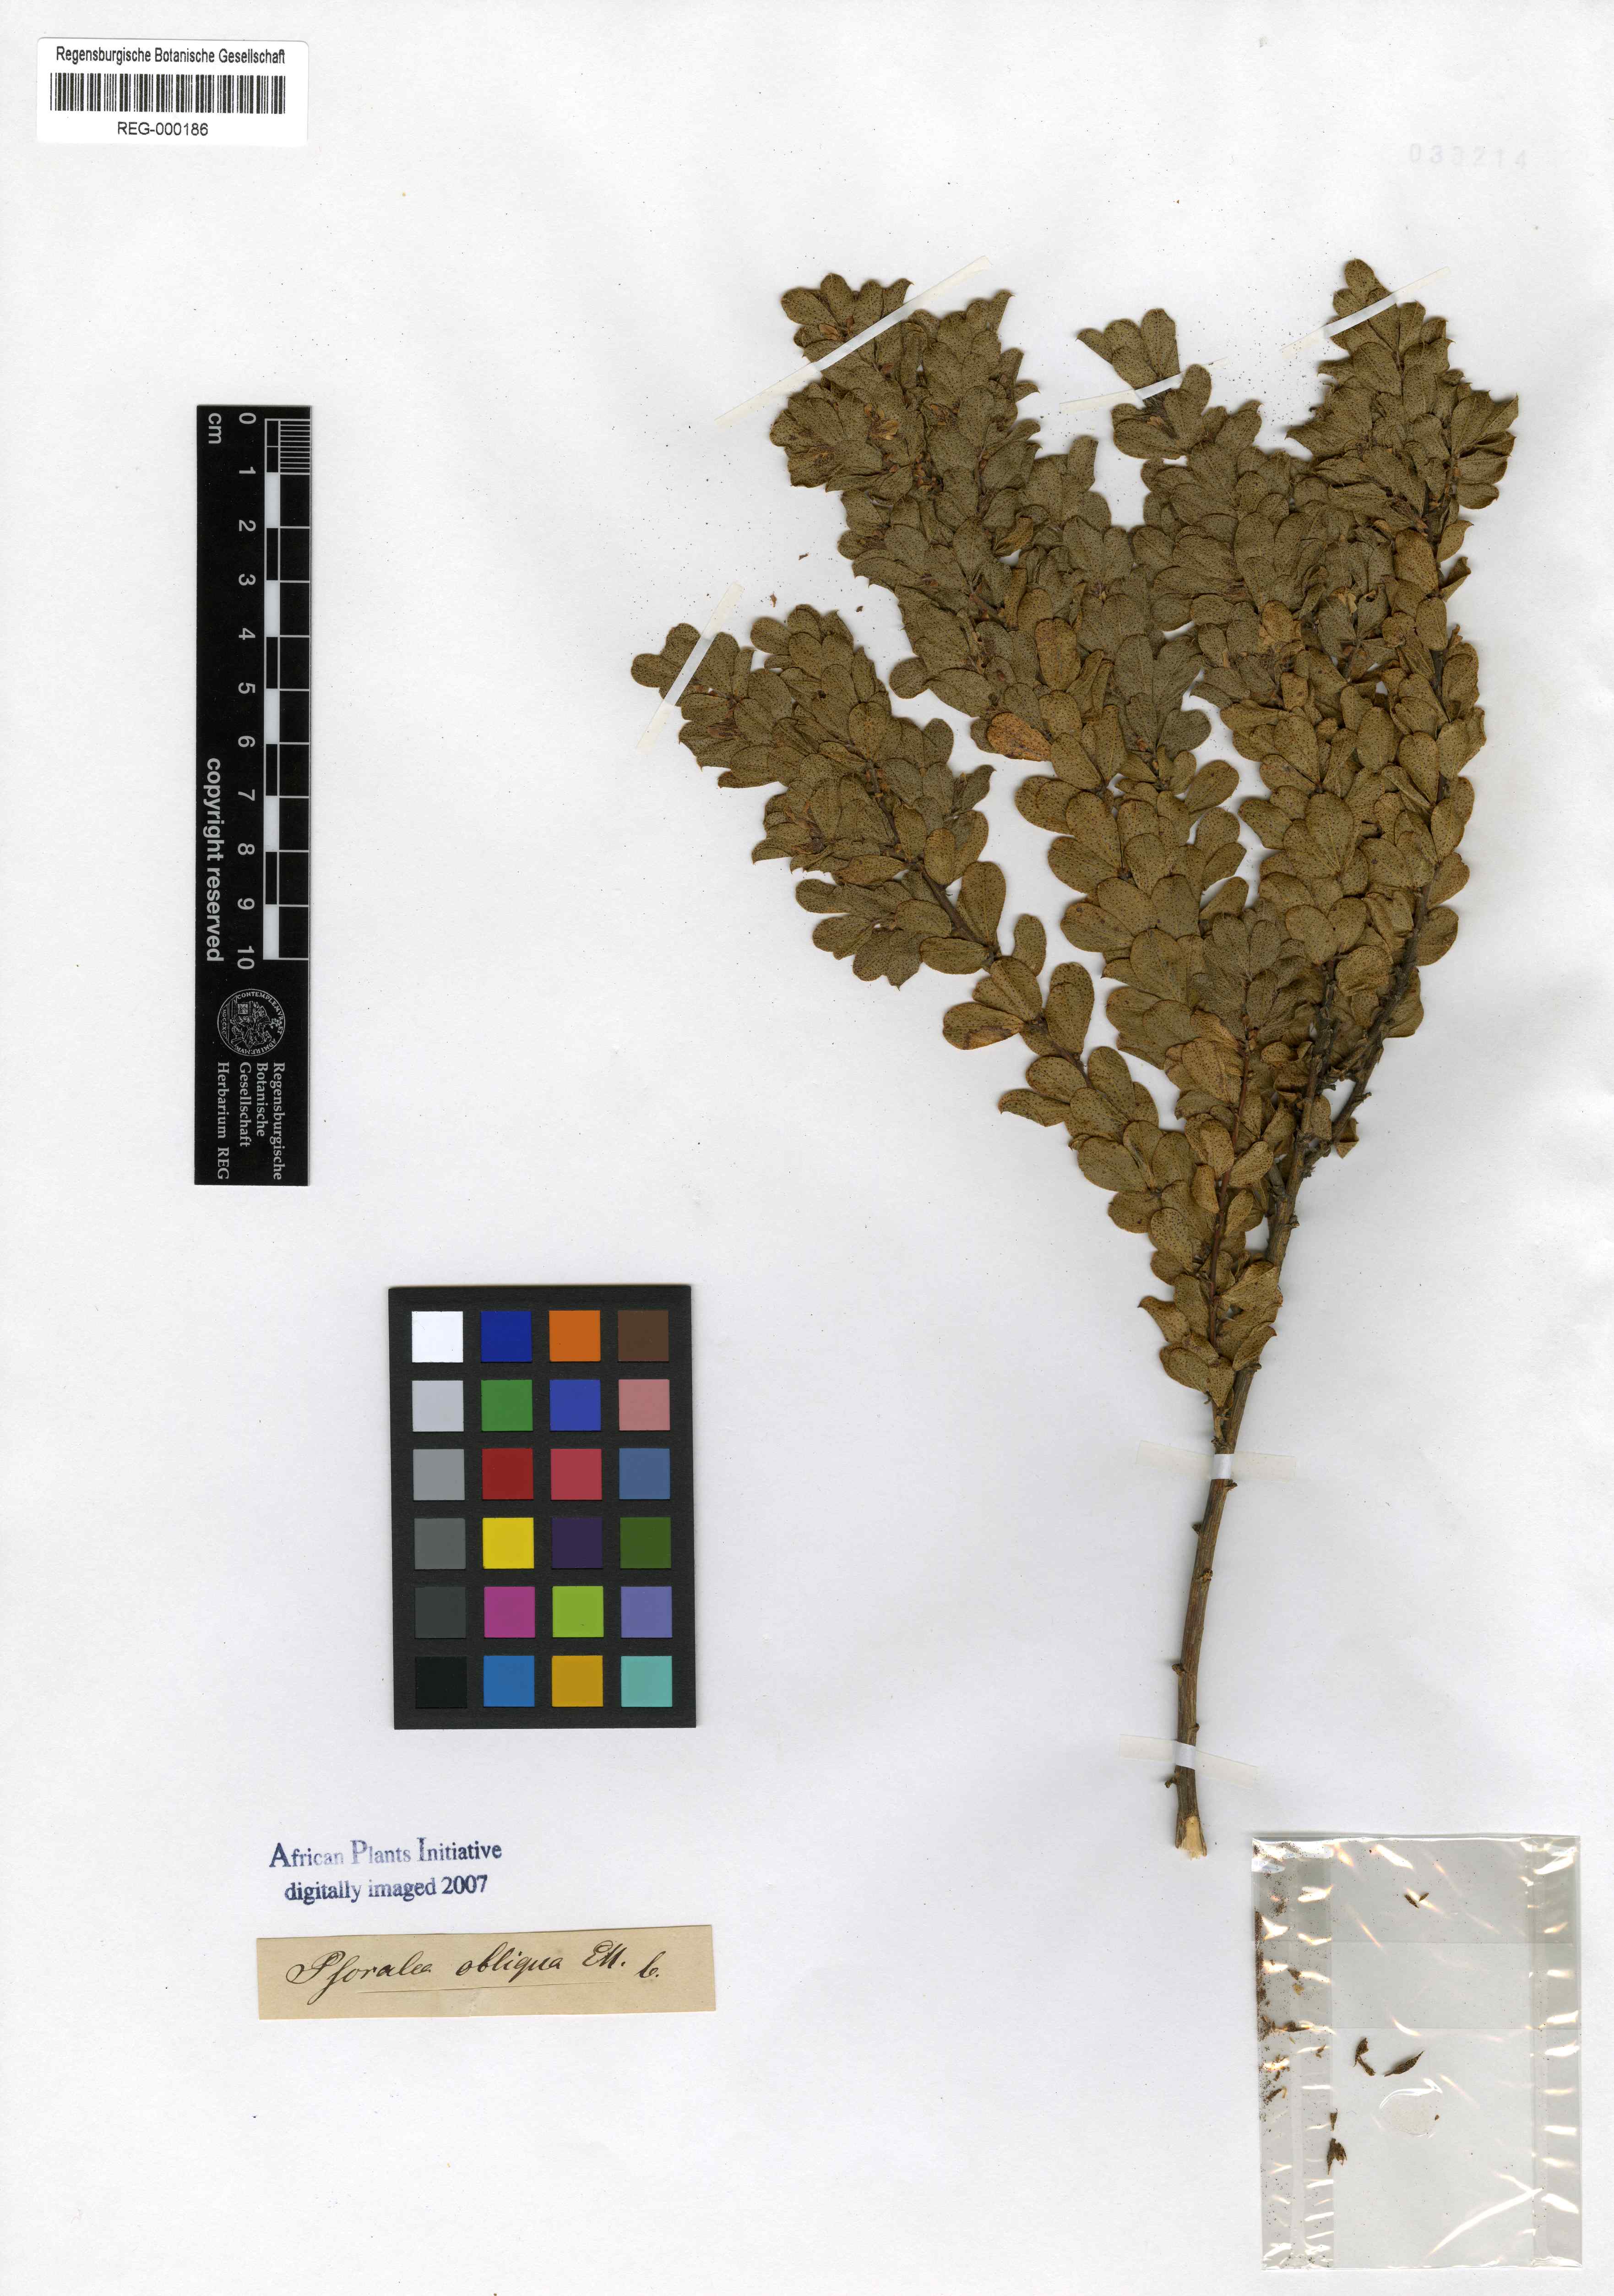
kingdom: Plantae
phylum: Tracheophyta
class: Magnoliopsida
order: Fabales
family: Fabaceae
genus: Psoralea
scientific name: Psoralea obliqua
